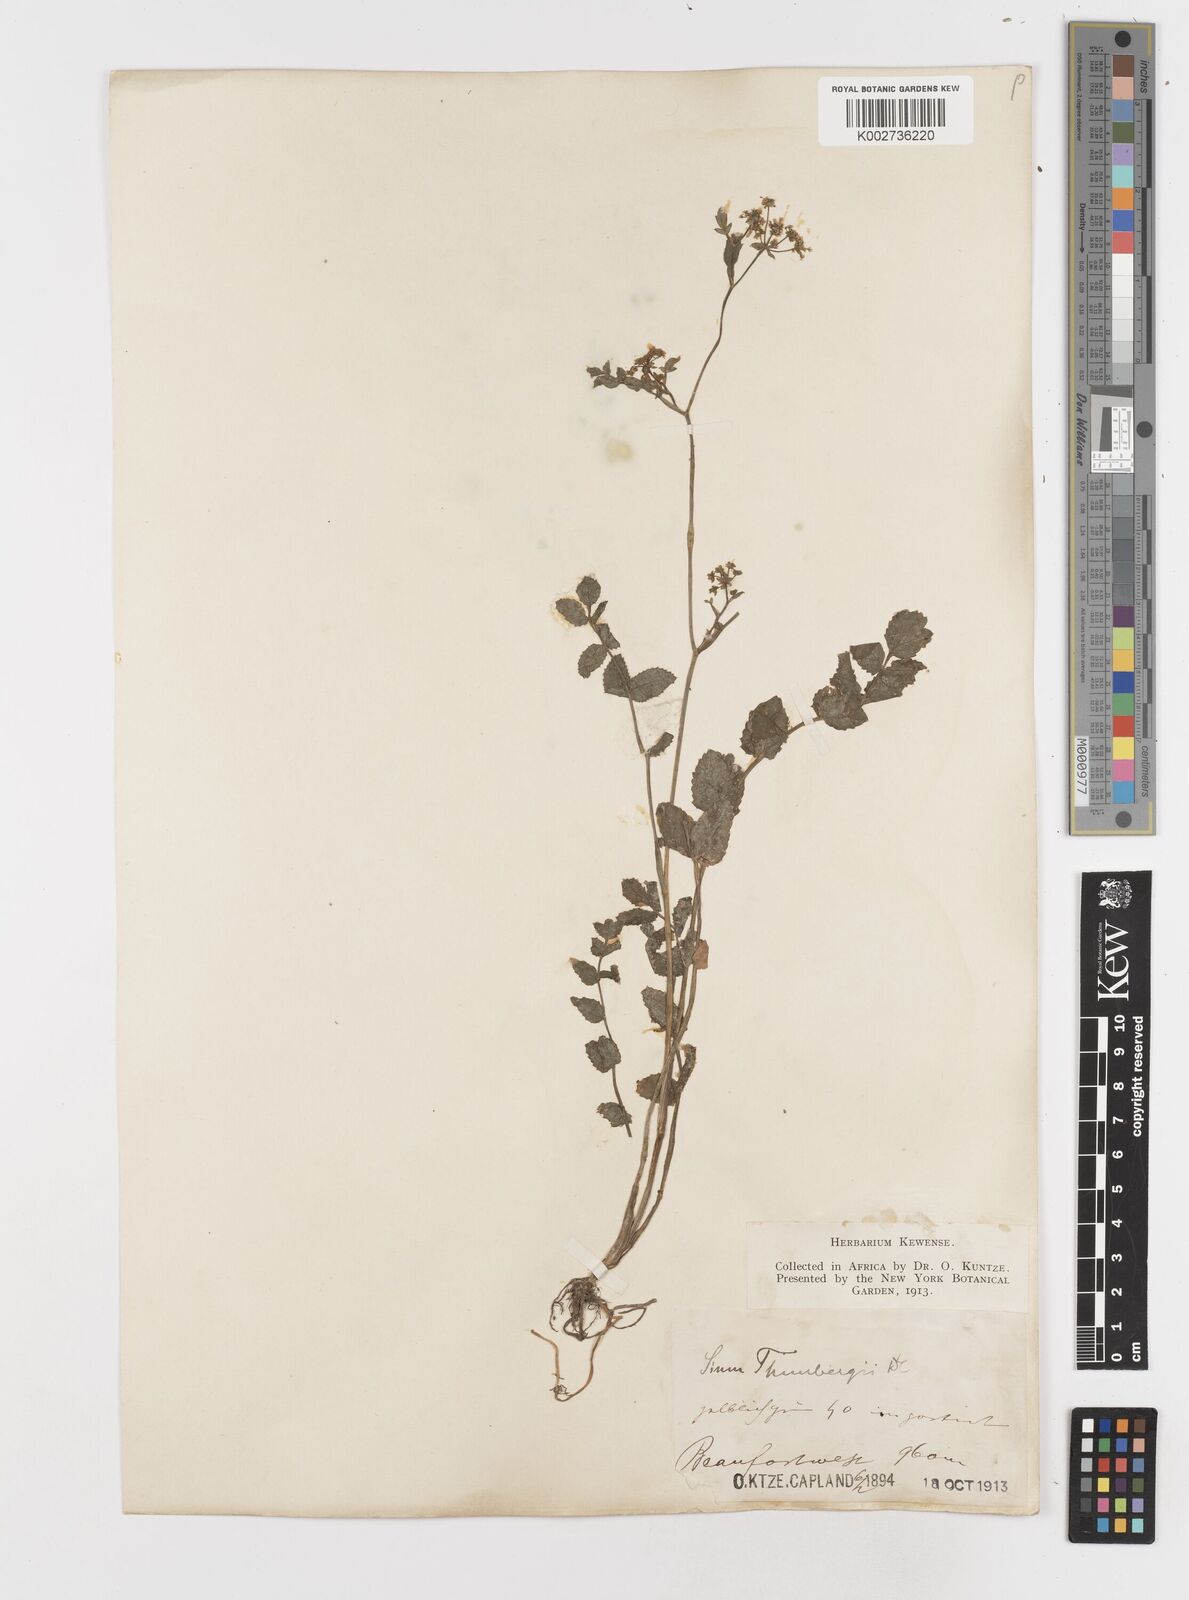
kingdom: Plantae
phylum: Tracheophyta
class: Magnoliopsida
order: Apiales
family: Apiaceae
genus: Berula
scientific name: Berula erecta
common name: Lesser water-parsnip
